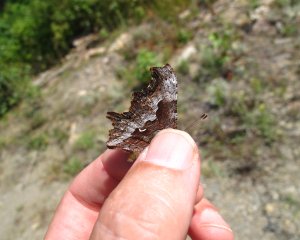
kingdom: Animalia
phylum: Arthropoda
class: Insecta
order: Lepidoptera
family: Nymphalidae
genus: Polygonia
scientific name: Polygonia gracilis
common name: Hoary Comma
